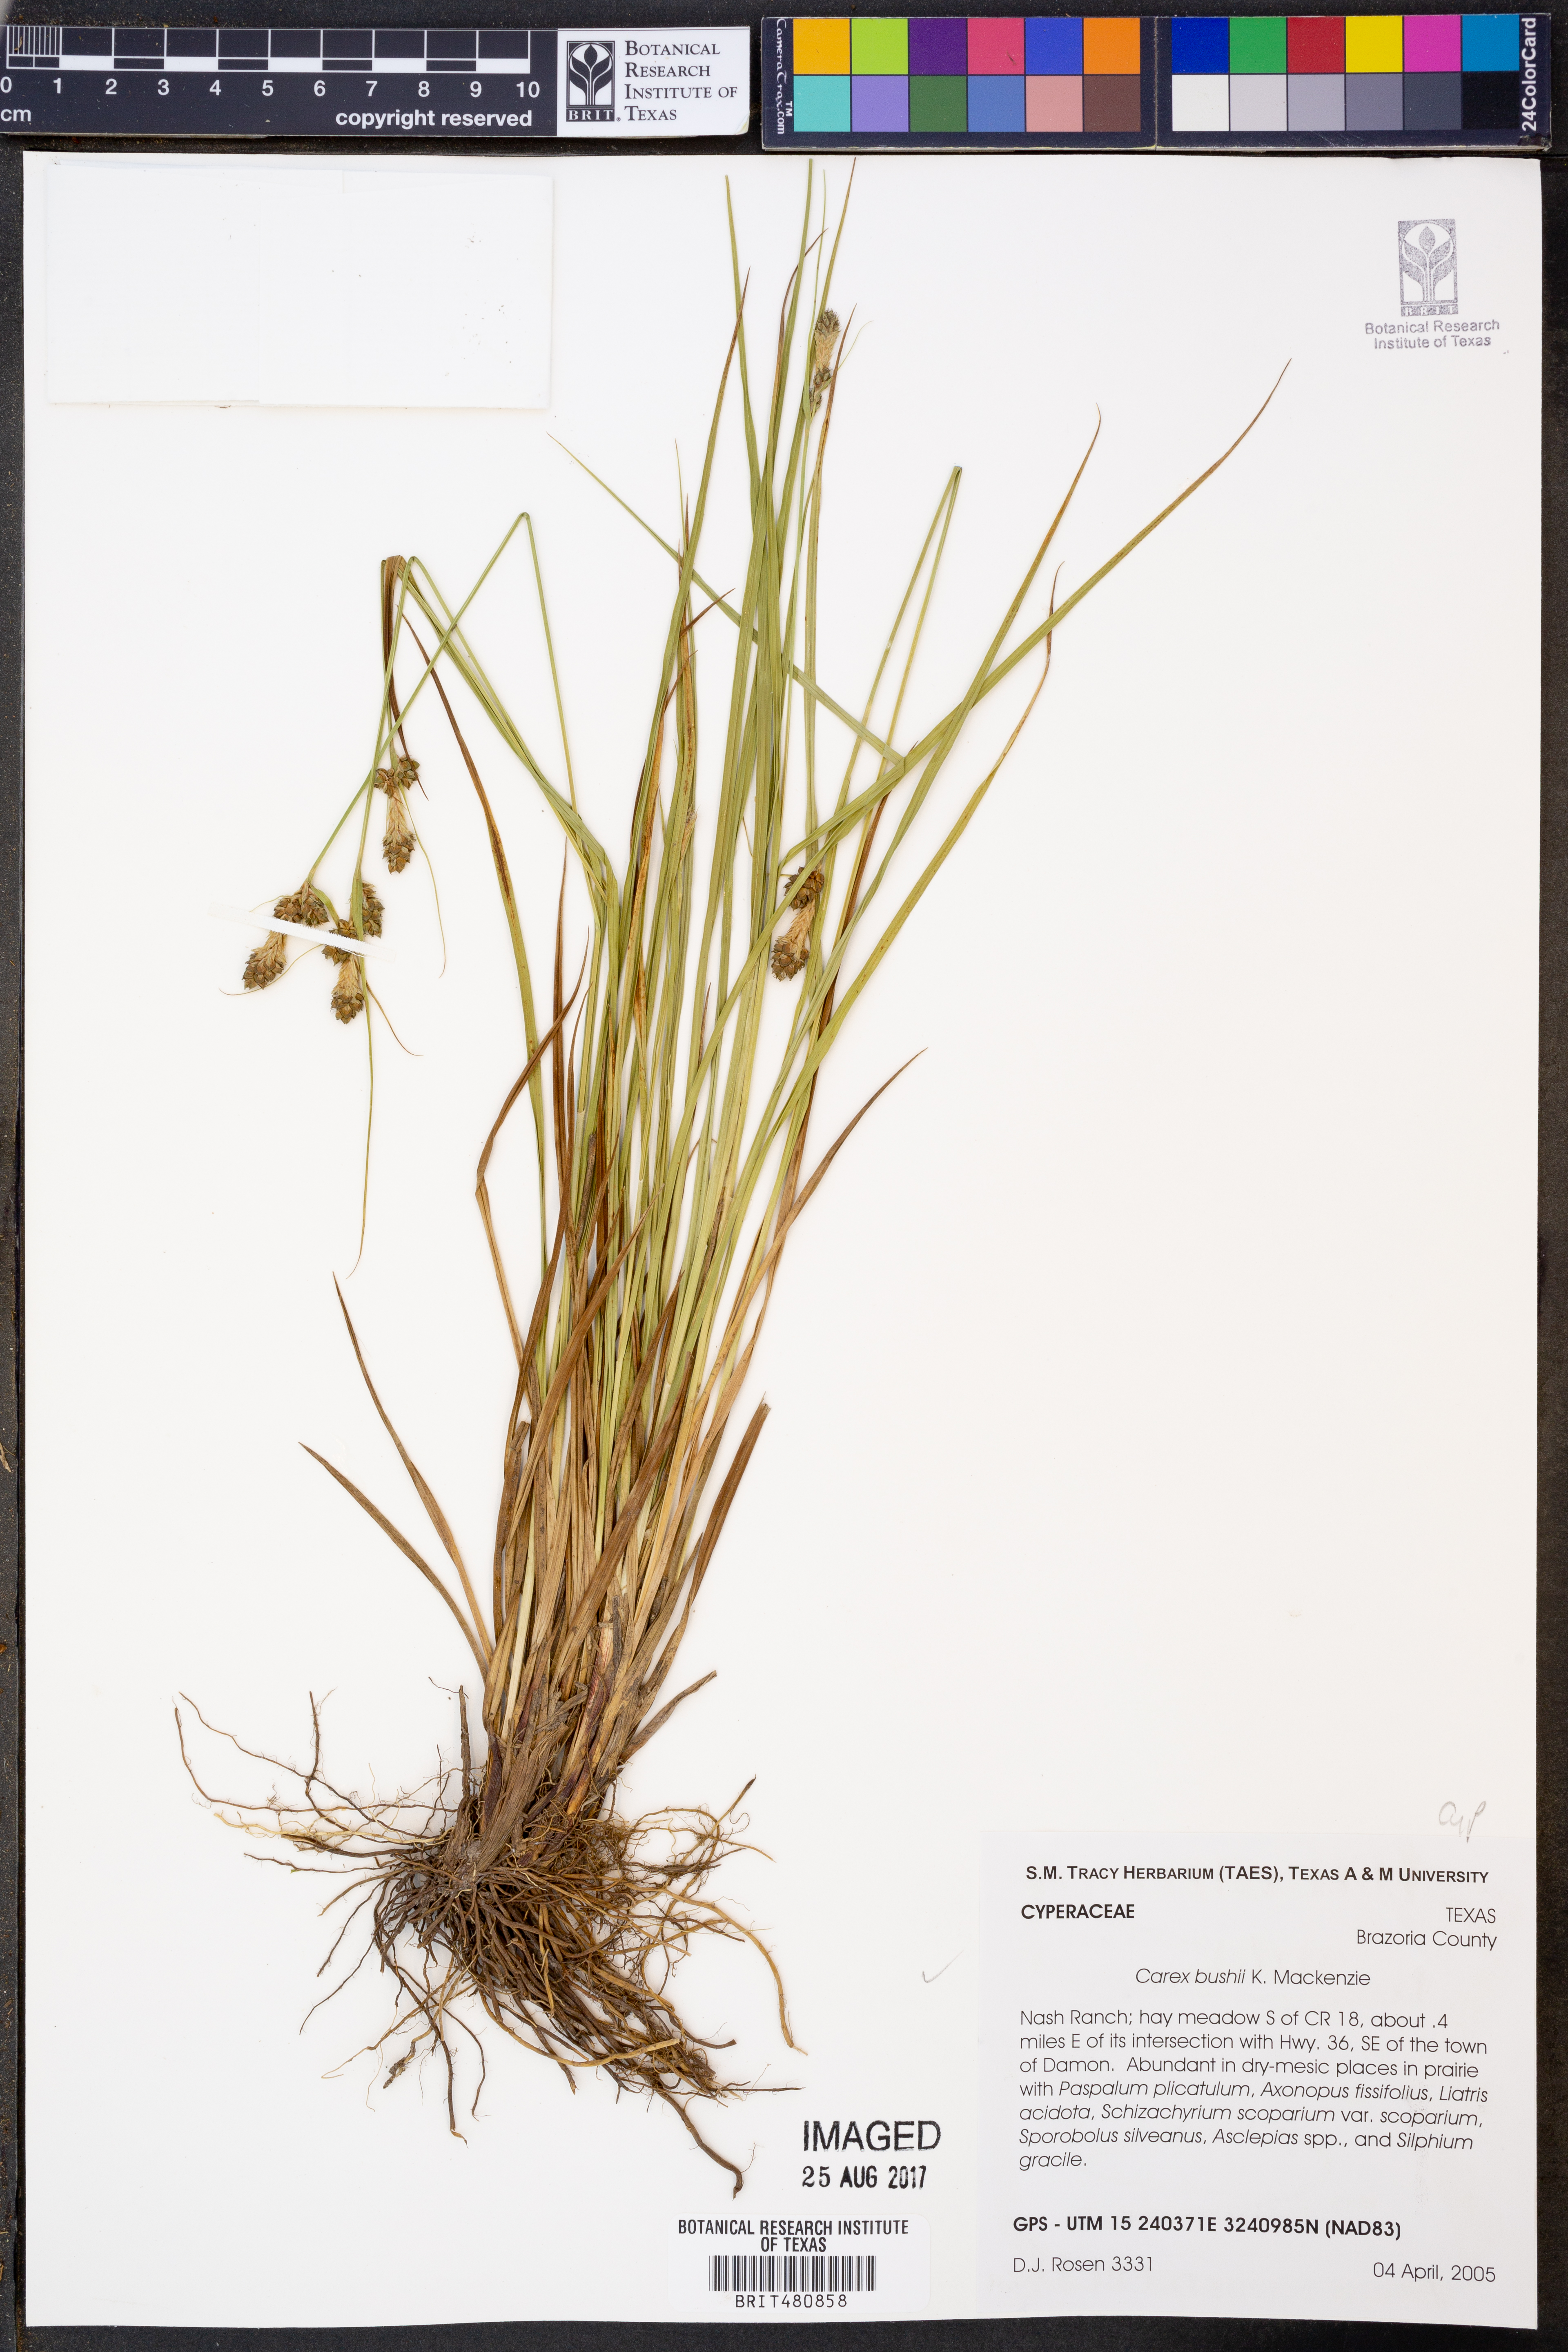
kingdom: Plantae
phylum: Tracheophyta
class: Liliopsida
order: Poales
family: Cyperaceae
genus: Carex
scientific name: Carex bushii
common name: Bush's sedge
